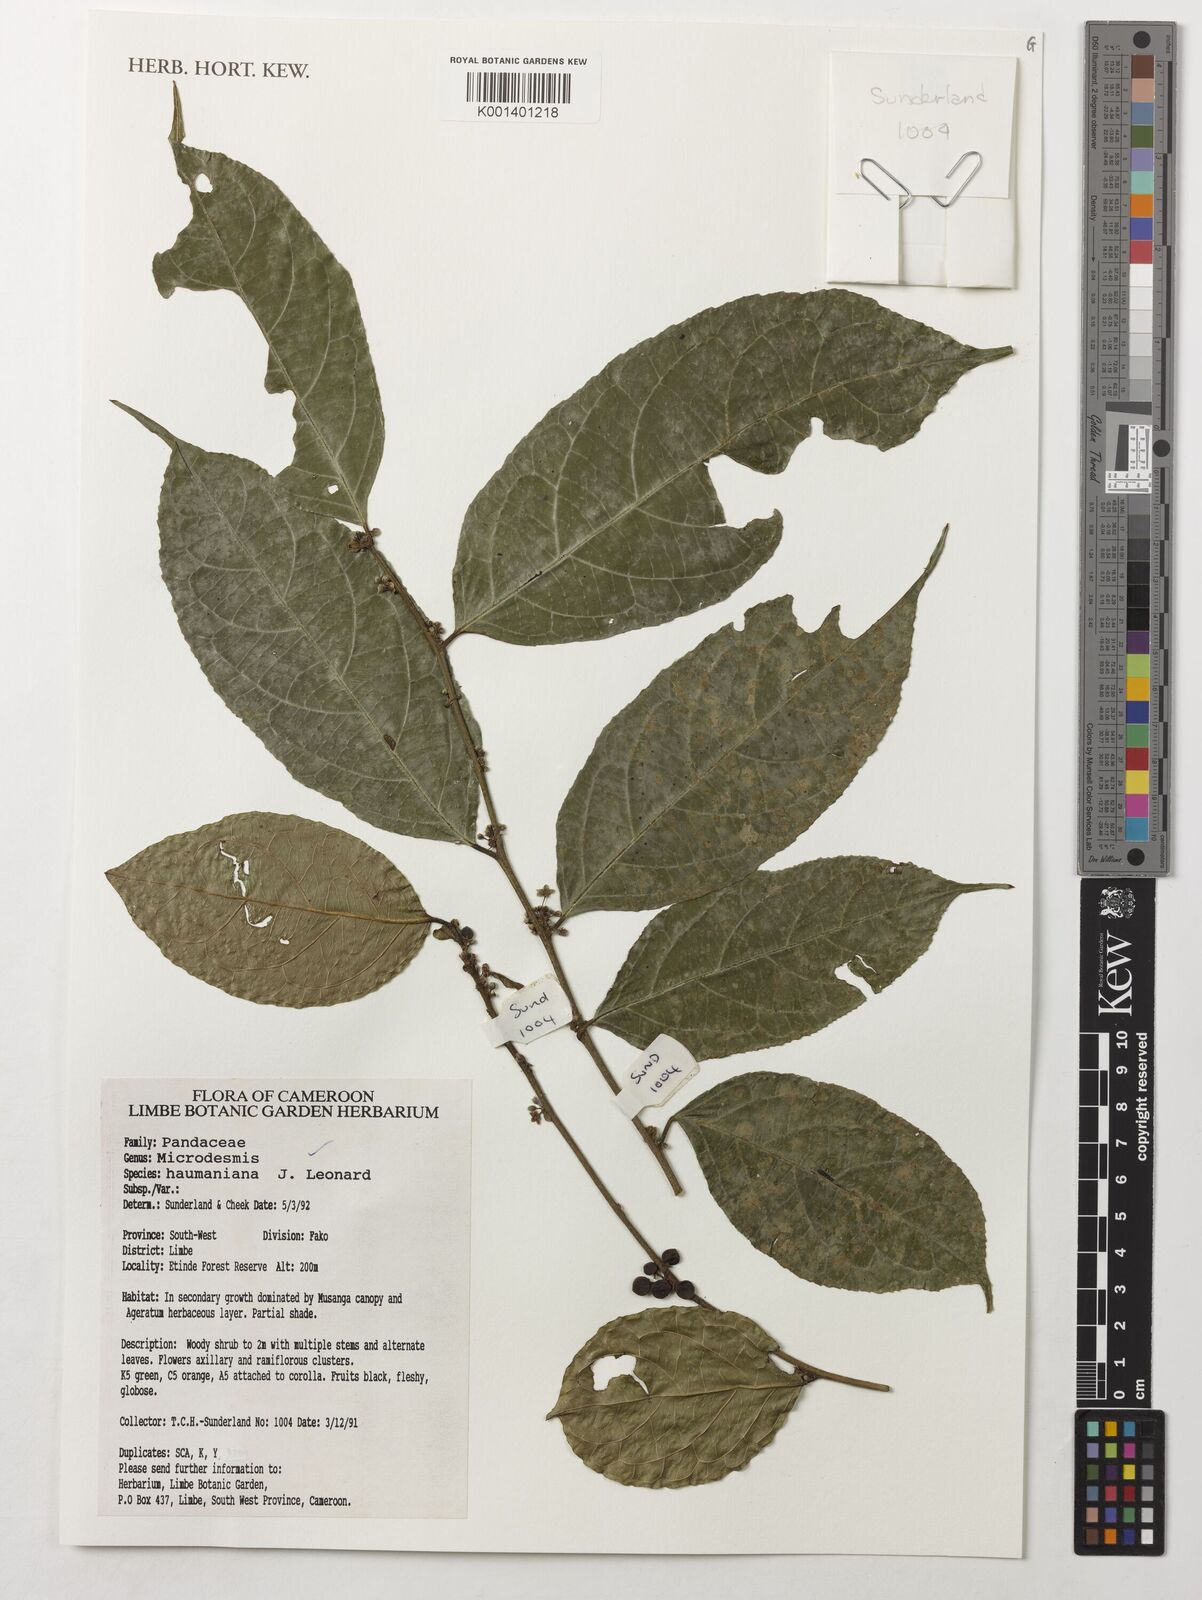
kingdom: Plantae
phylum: Tracheophyta
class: Magnoliopsida
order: Malpighiales
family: Pandaceae
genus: Microdesmis
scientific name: Microdesmis haumaniana
